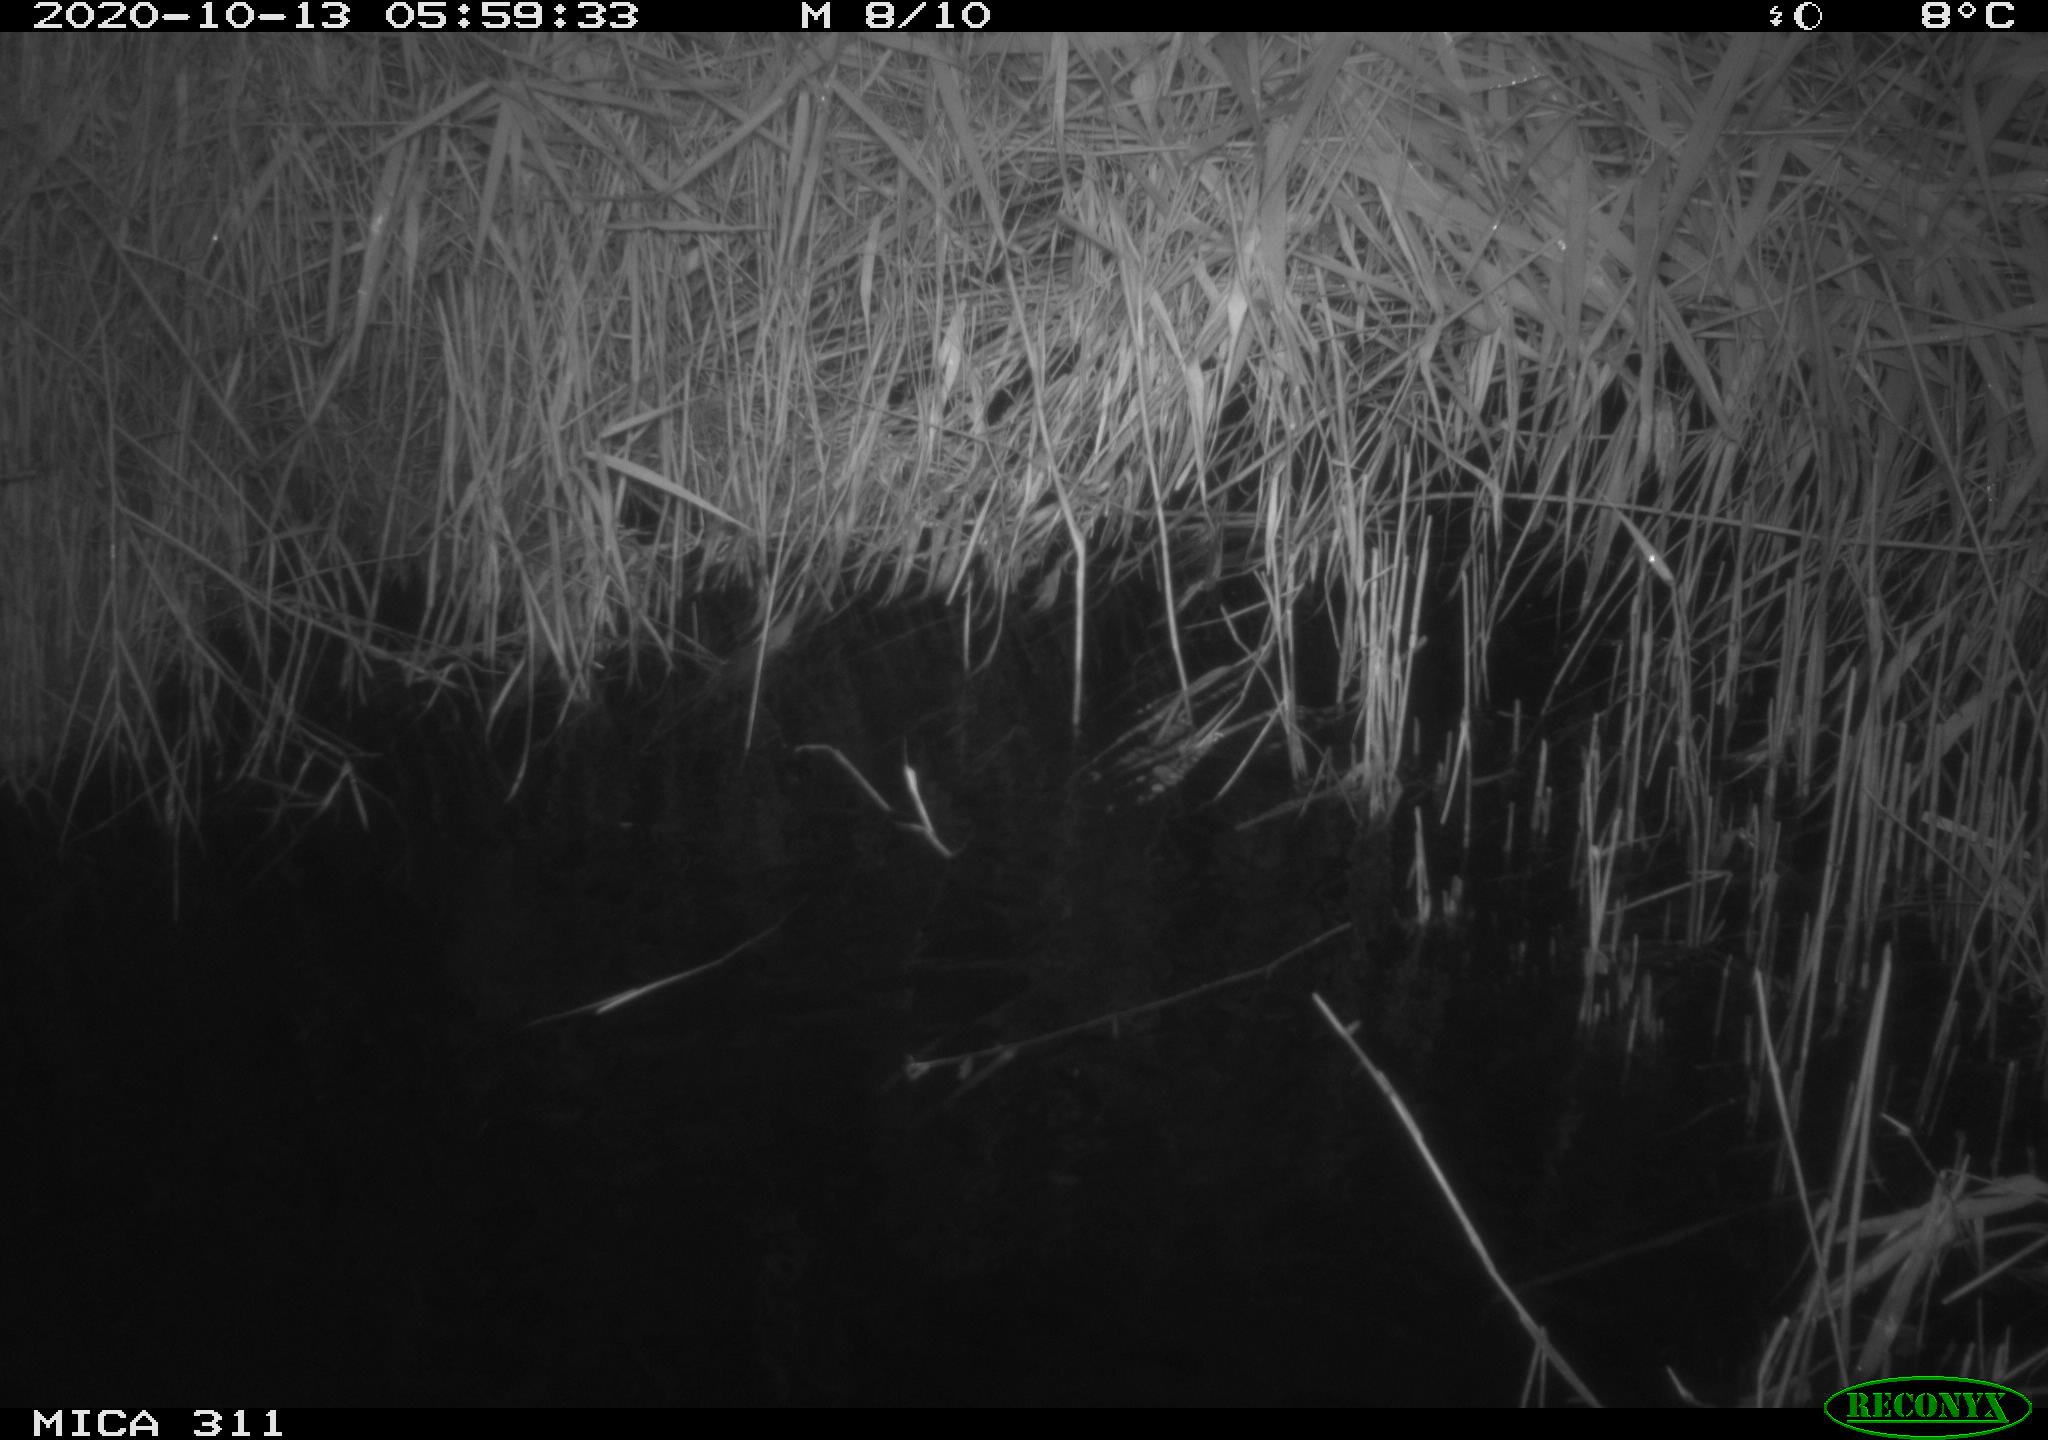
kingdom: Animalia
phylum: Chordata
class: Mammalia
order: Rodentia
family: Cricetidae
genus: Ondatra
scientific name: Ondatra zibethicus
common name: Muskrat
